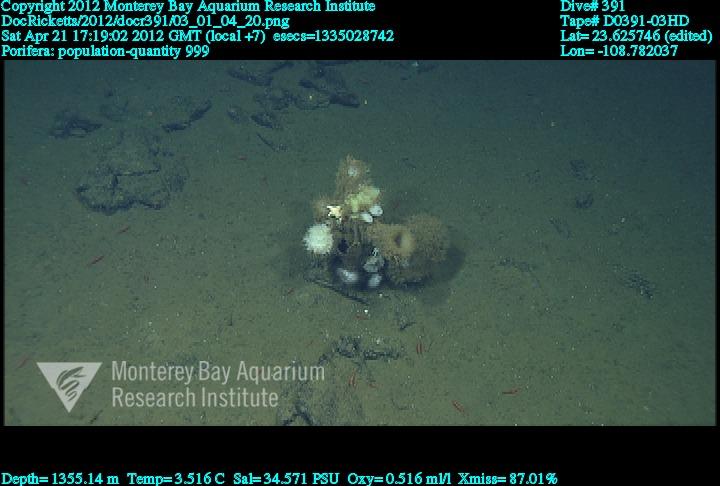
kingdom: Animalia
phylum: Porifera
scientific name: Porifera
